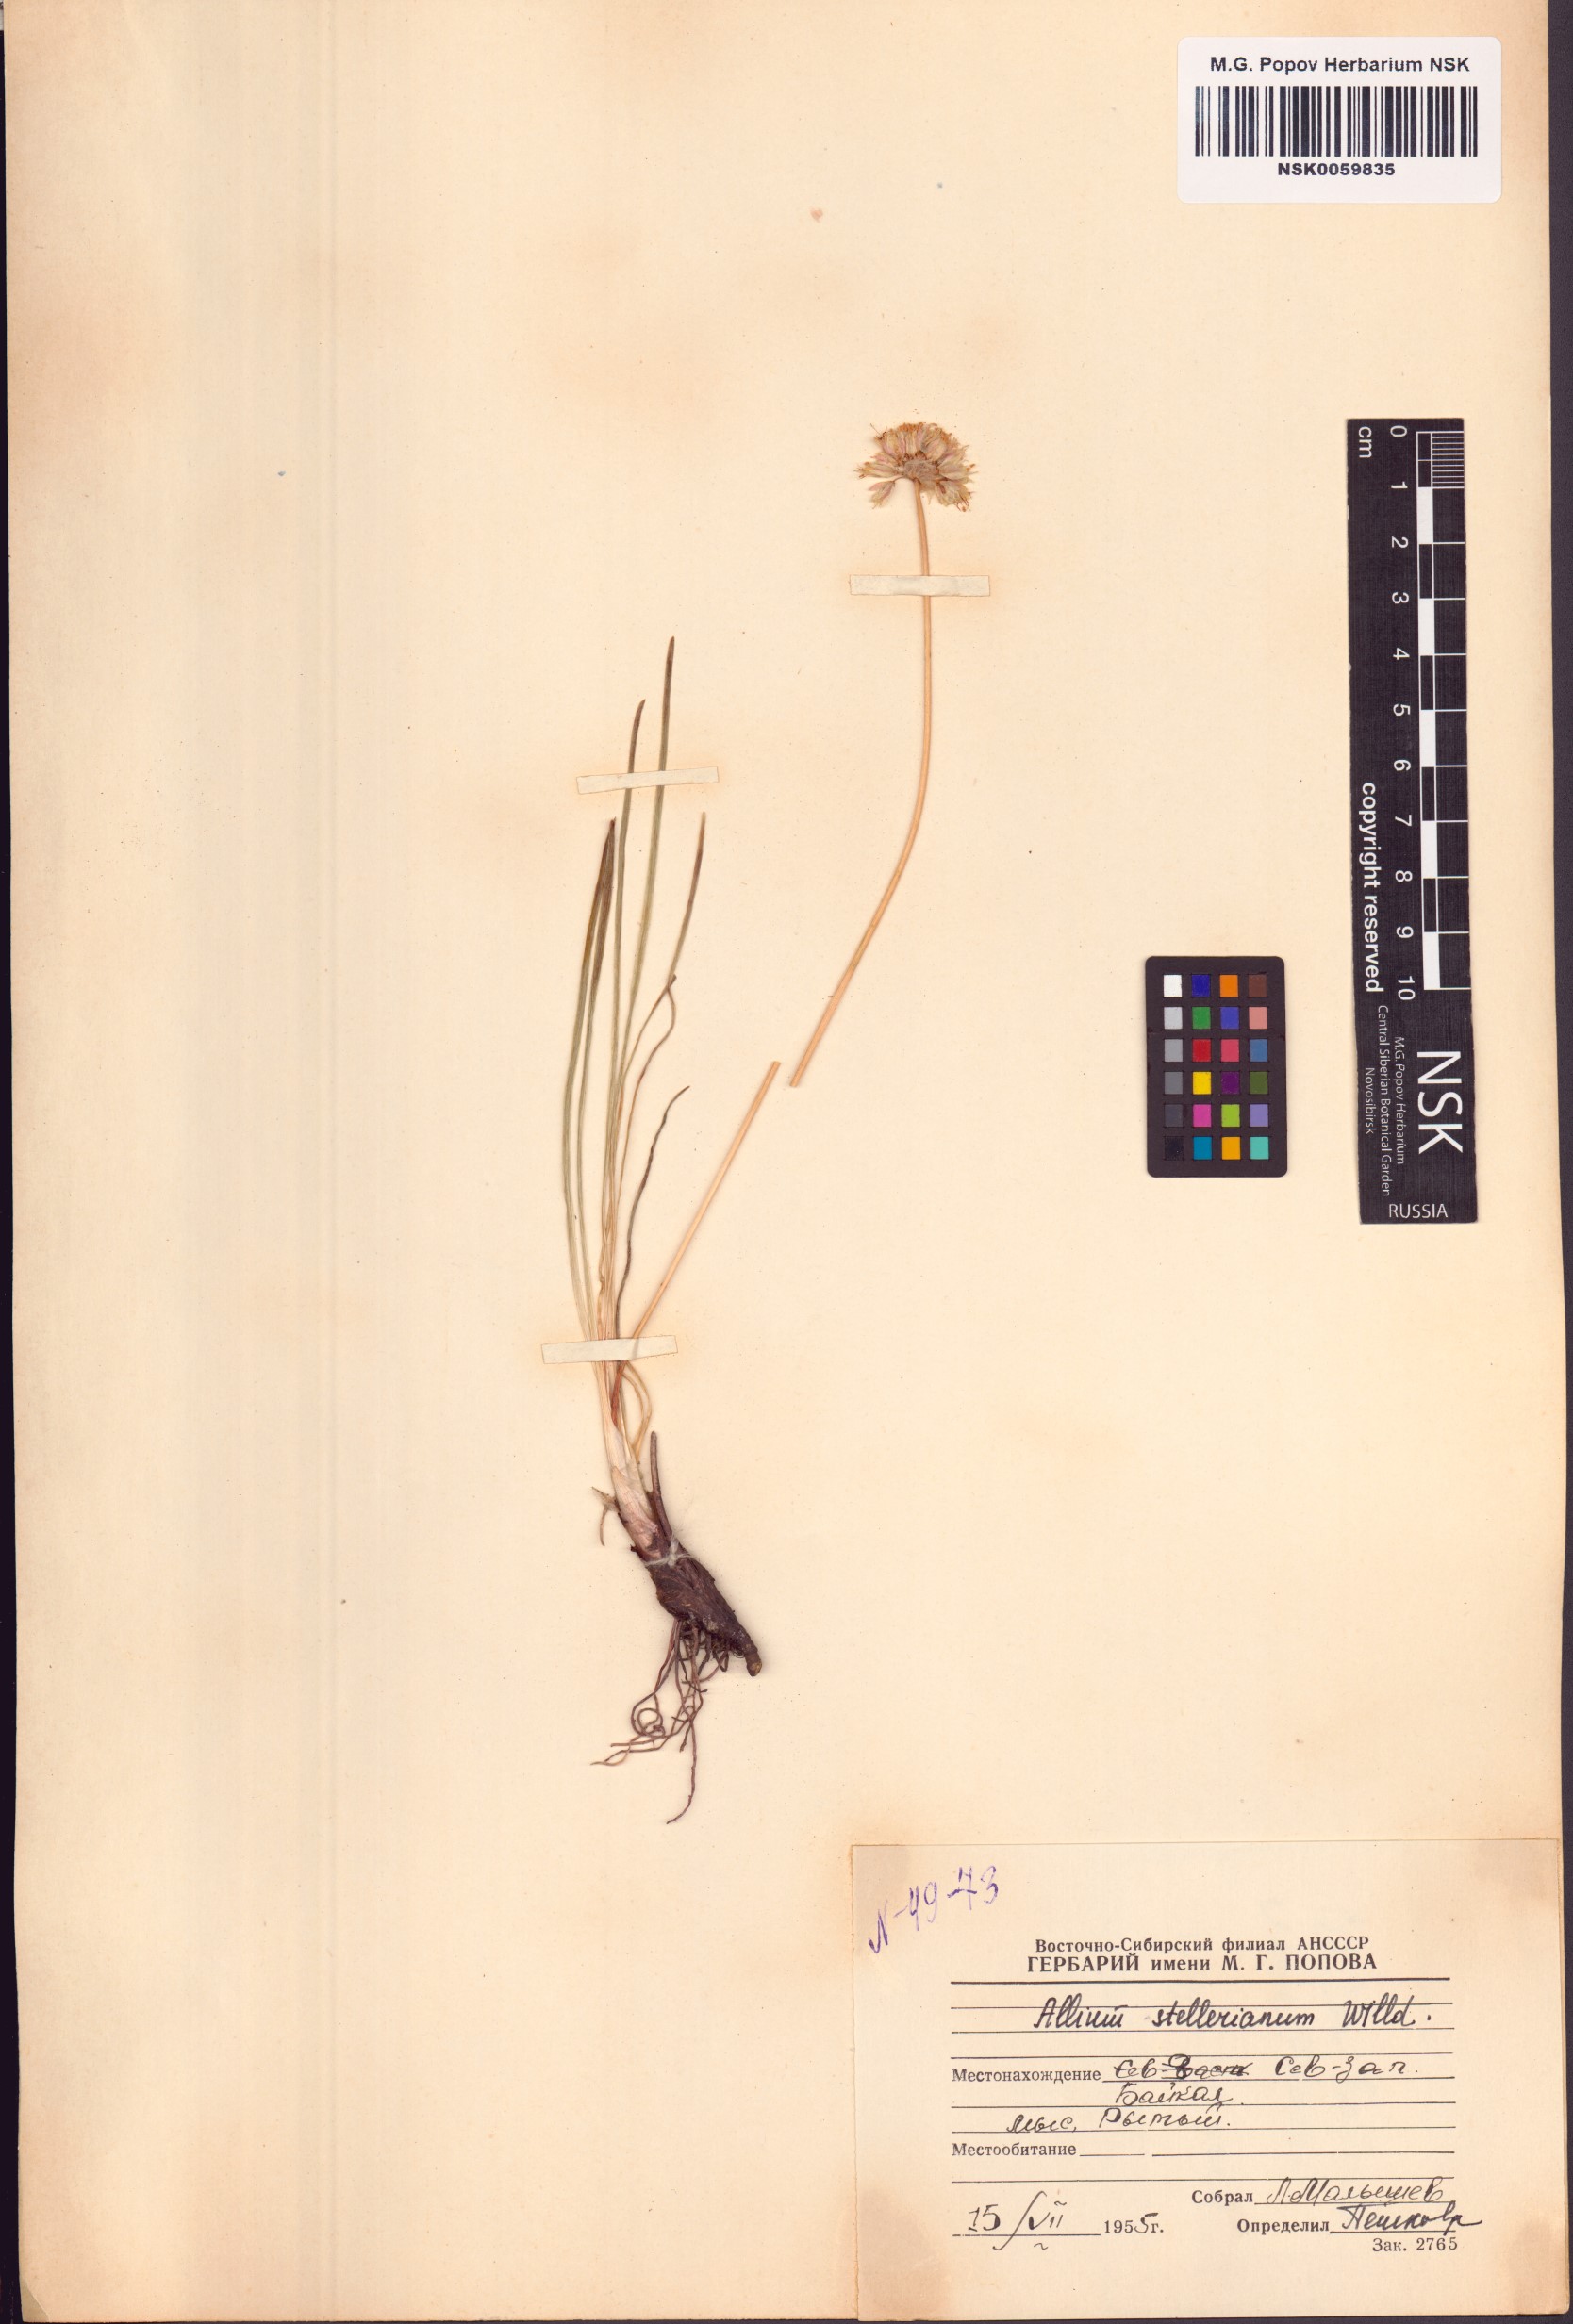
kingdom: Plantae
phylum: Tracheophyta
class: Liliopsida
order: Asparagales
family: Amaryllidaceae
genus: Allium
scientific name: Allium stellerianum
